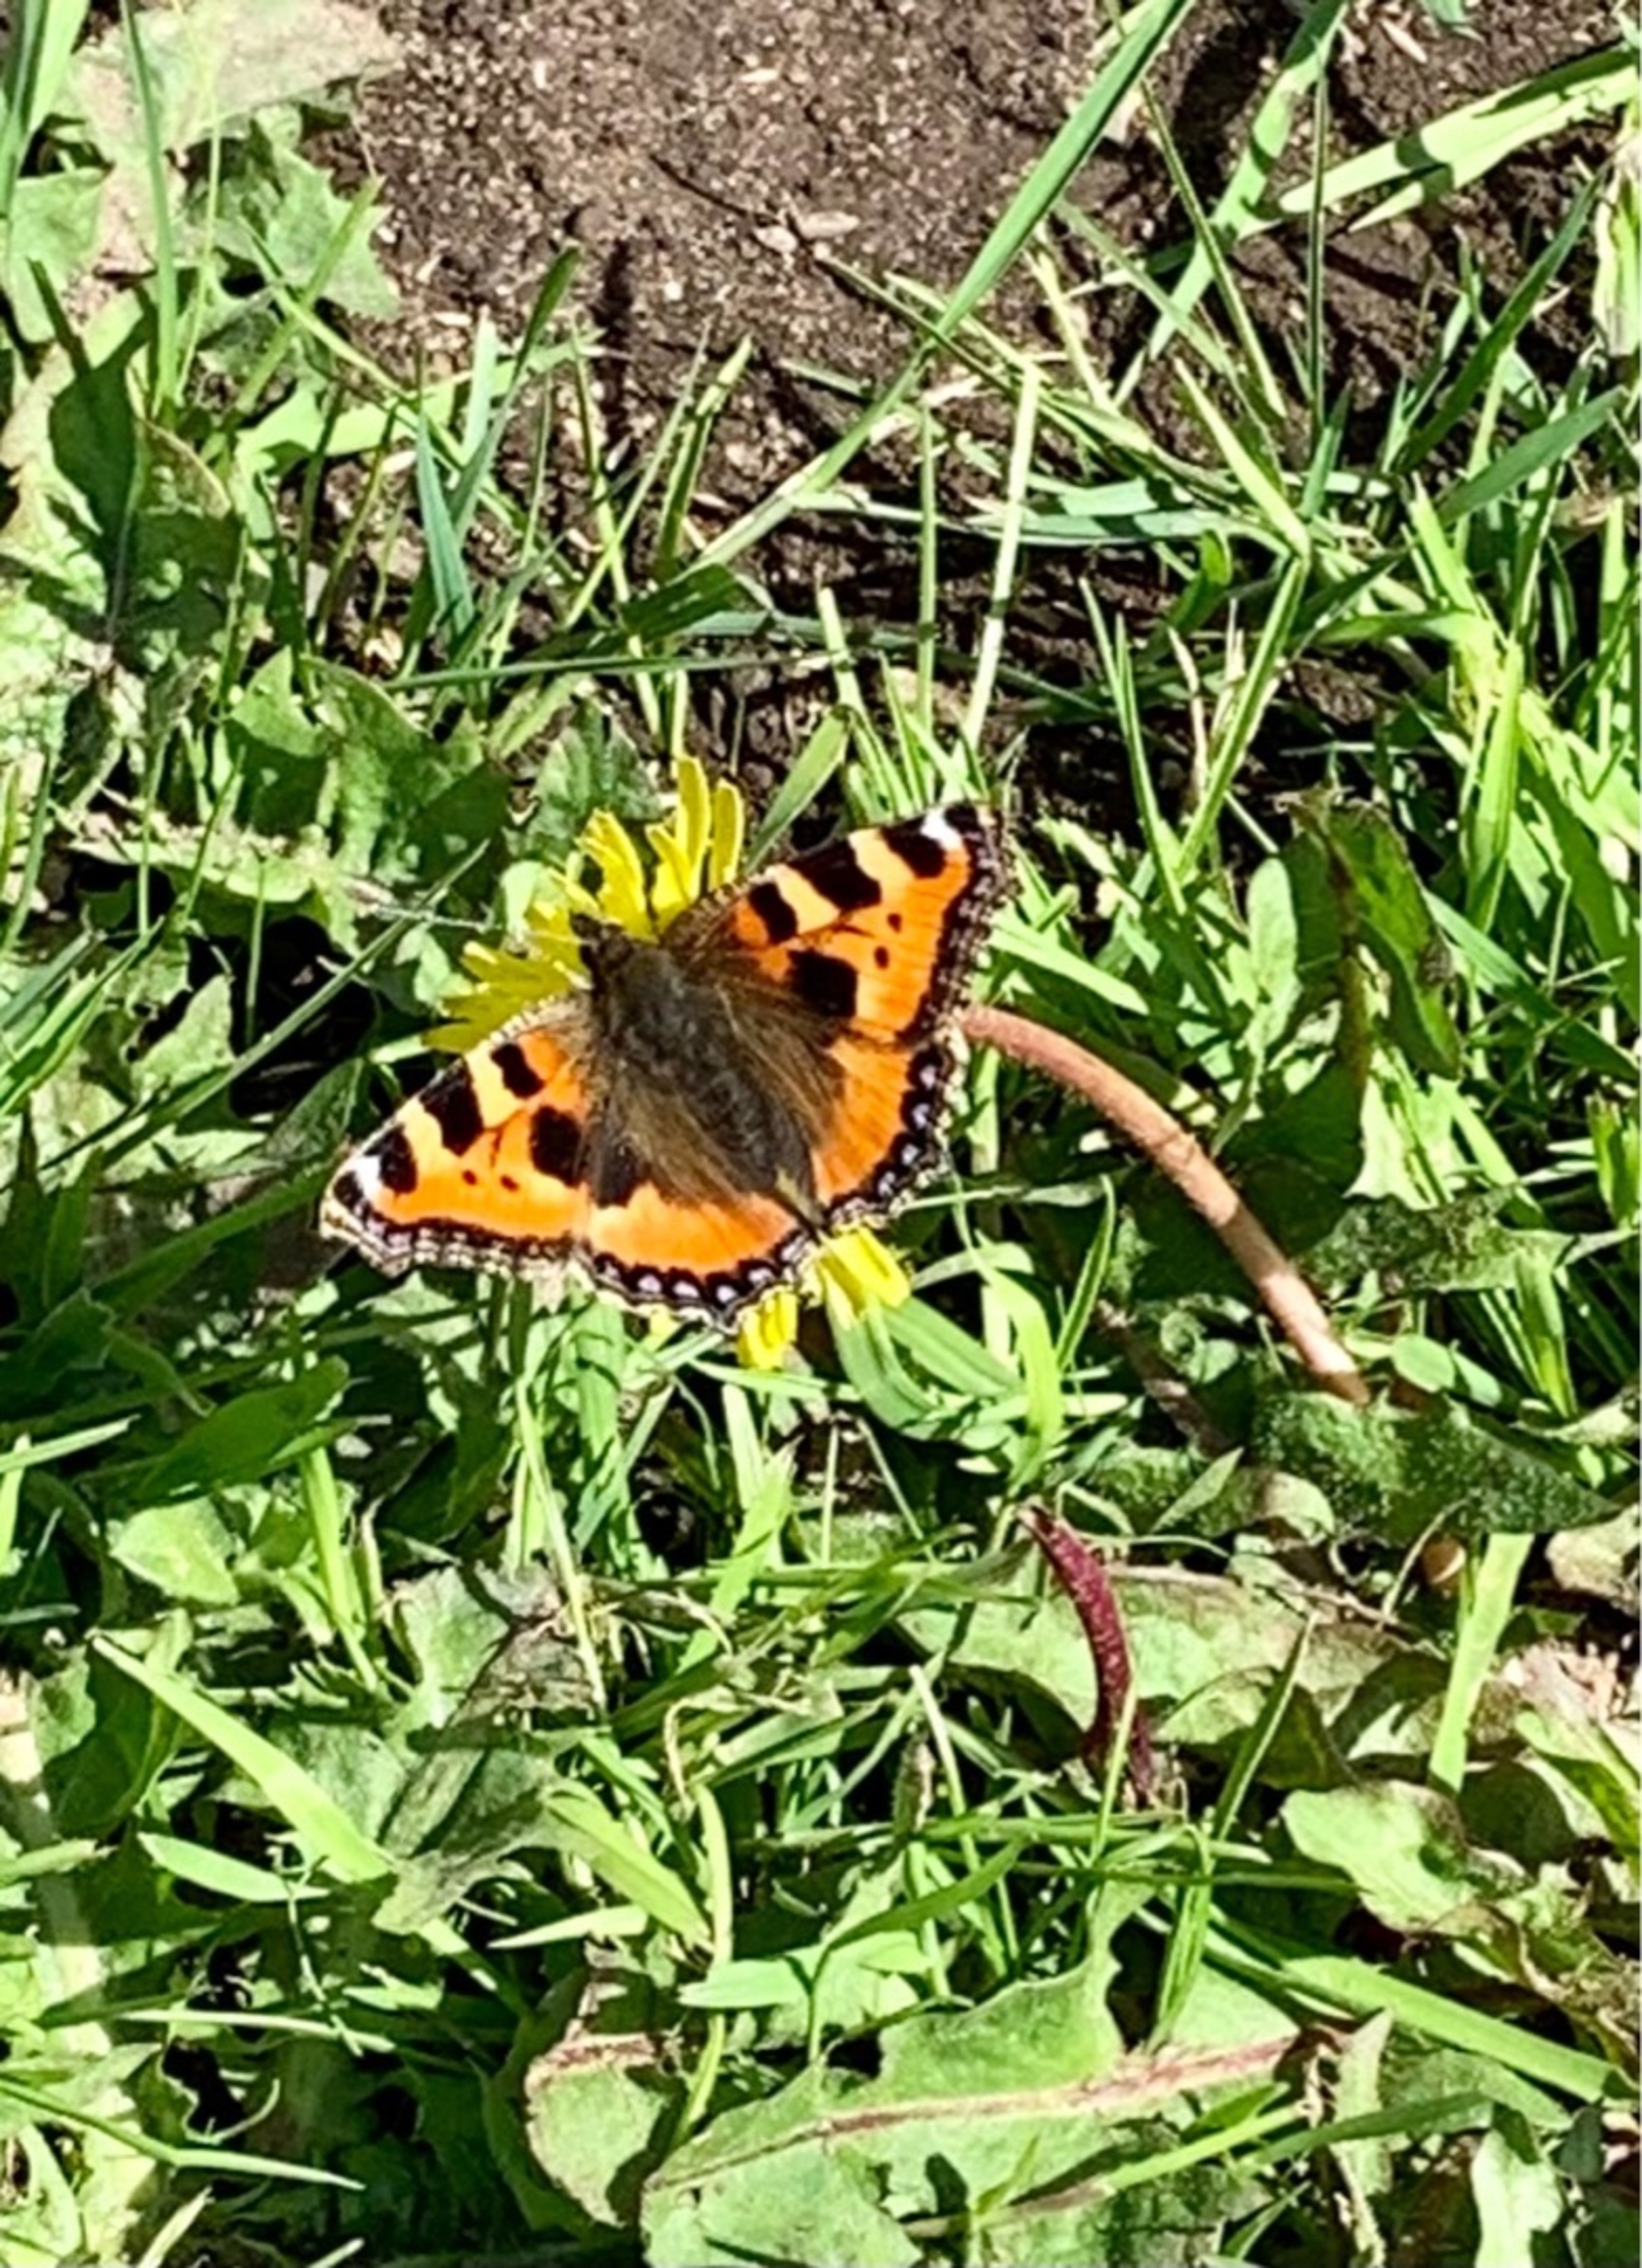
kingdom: Animalia
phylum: Arthropoda
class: Insecta
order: Lepidoptera
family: Nymphalidae
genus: Aglais
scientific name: Aglais urticae
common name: Nældens takvinge
